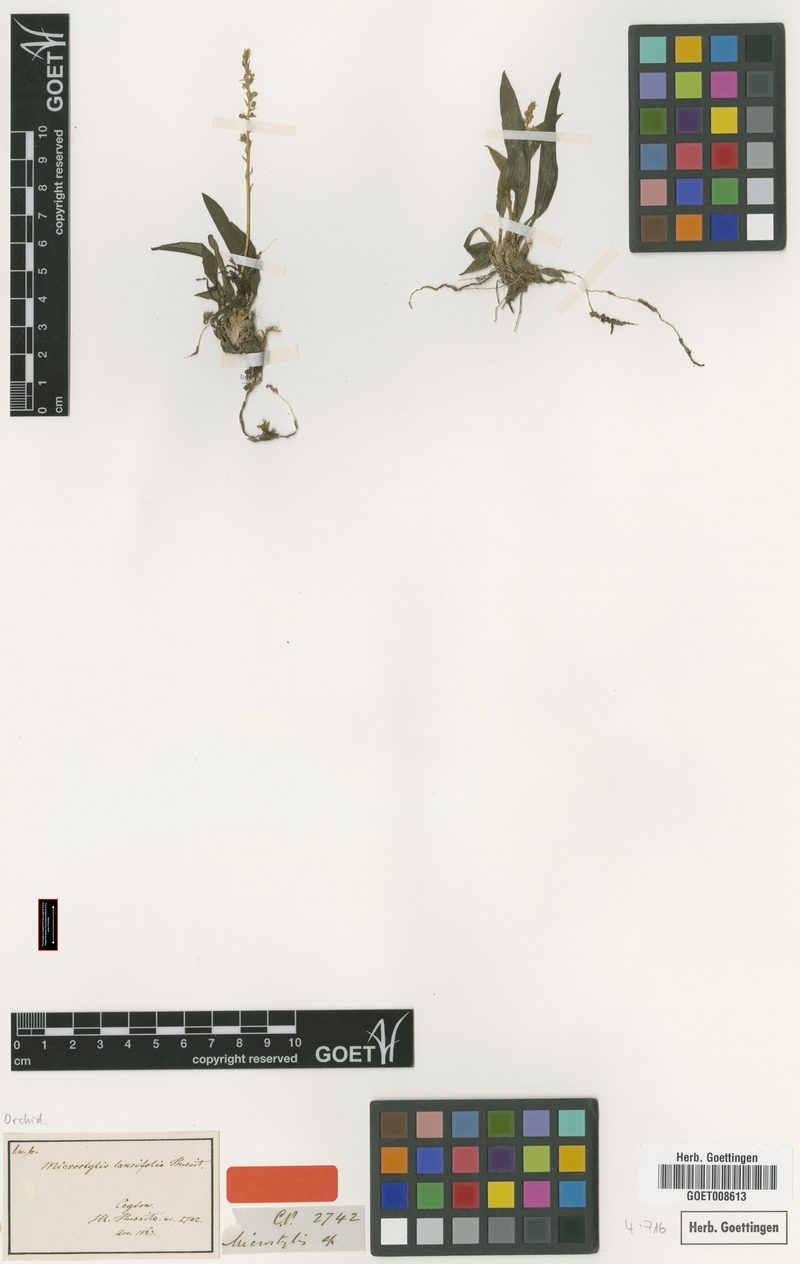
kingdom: Plantae
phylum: Tracheophyta
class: Liliopsida
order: Asparagales
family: Orchidaceae
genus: Malaxis
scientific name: Malaxis thwaitesii
